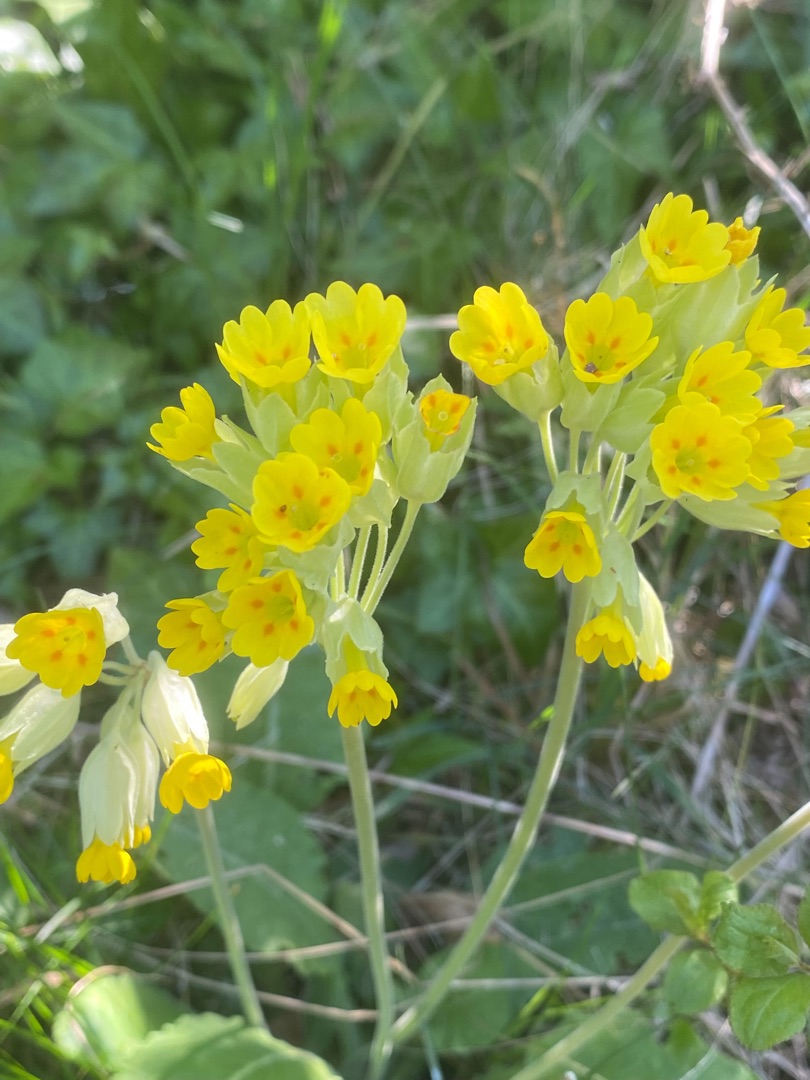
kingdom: Plantae
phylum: Tracheophyta
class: Magnoliopsida
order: Ericales
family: Primulaceae
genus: Primula
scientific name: Primula veris
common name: Hulkravet kodriver
